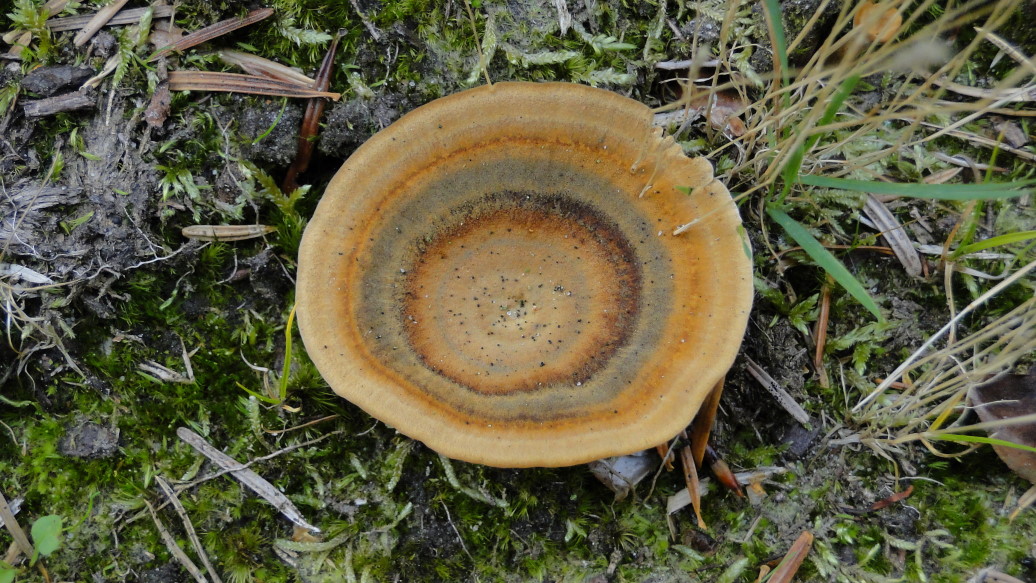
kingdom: Fungi
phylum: Basidiomycota
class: Agaricomycetes
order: Hymenochaetales
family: Hymenochaetaceae
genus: Coltricia
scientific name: Coltricia perennis
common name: almindelig sandporesvamp
